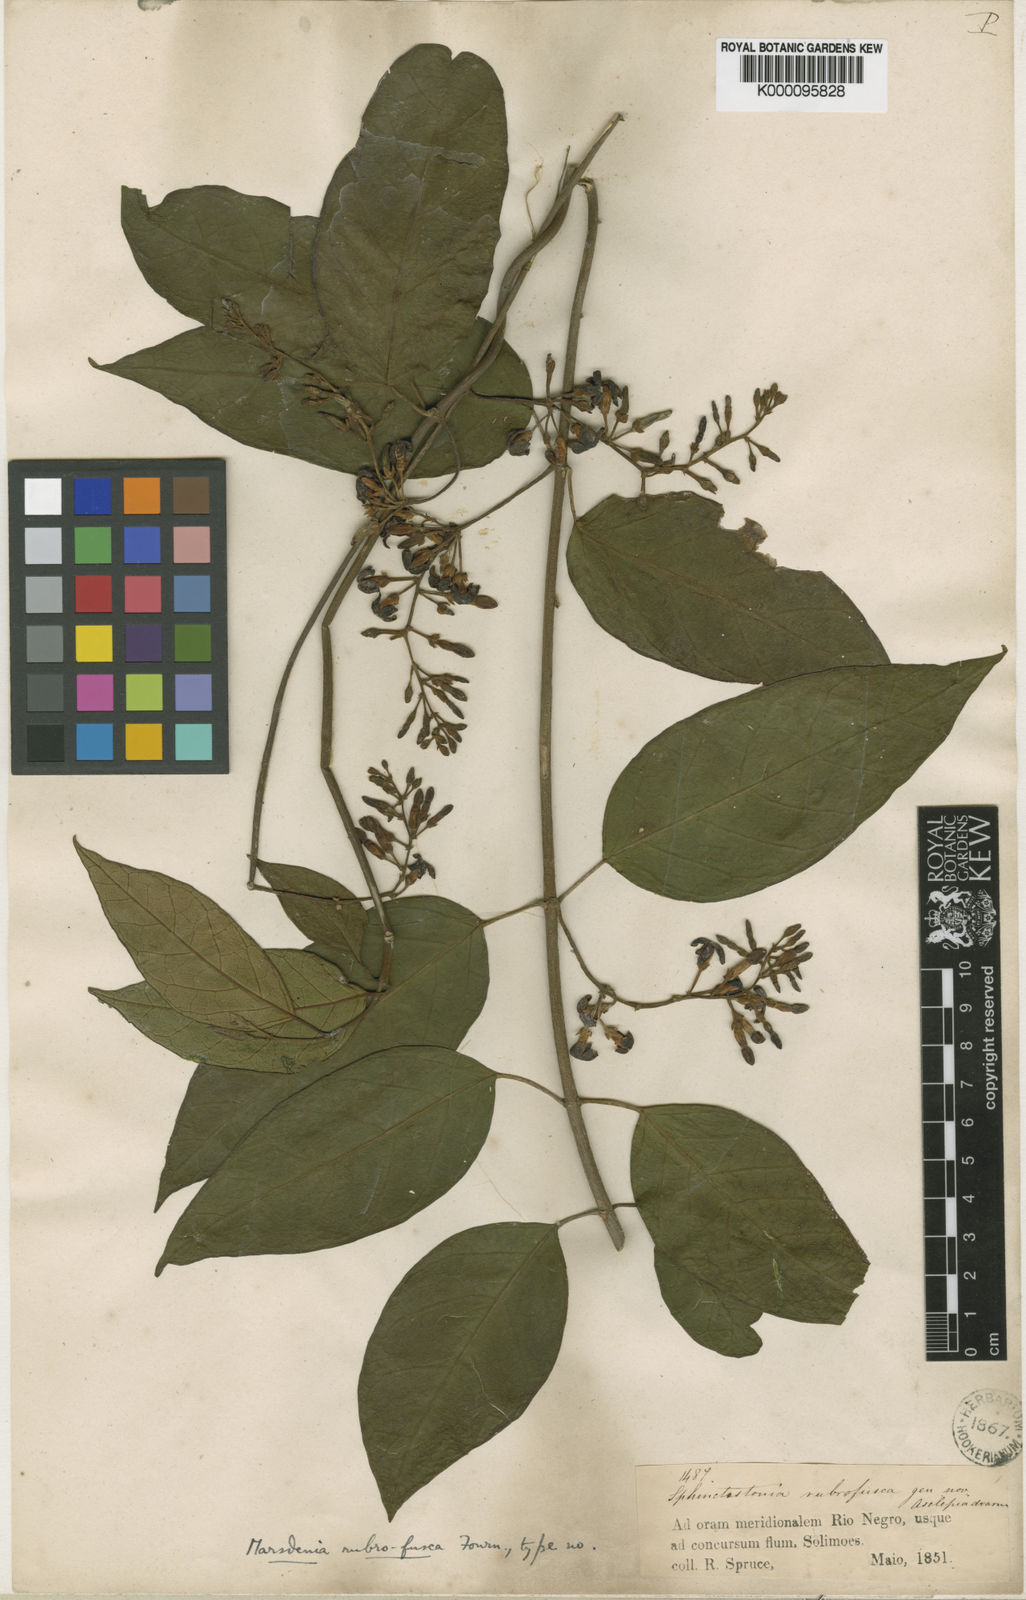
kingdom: Plantae
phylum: Tracheophyta
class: Magnoliopsida
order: Gentianales
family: Apocynaceae
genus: Ruehssia
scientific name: Ruehssia rubrofusca
